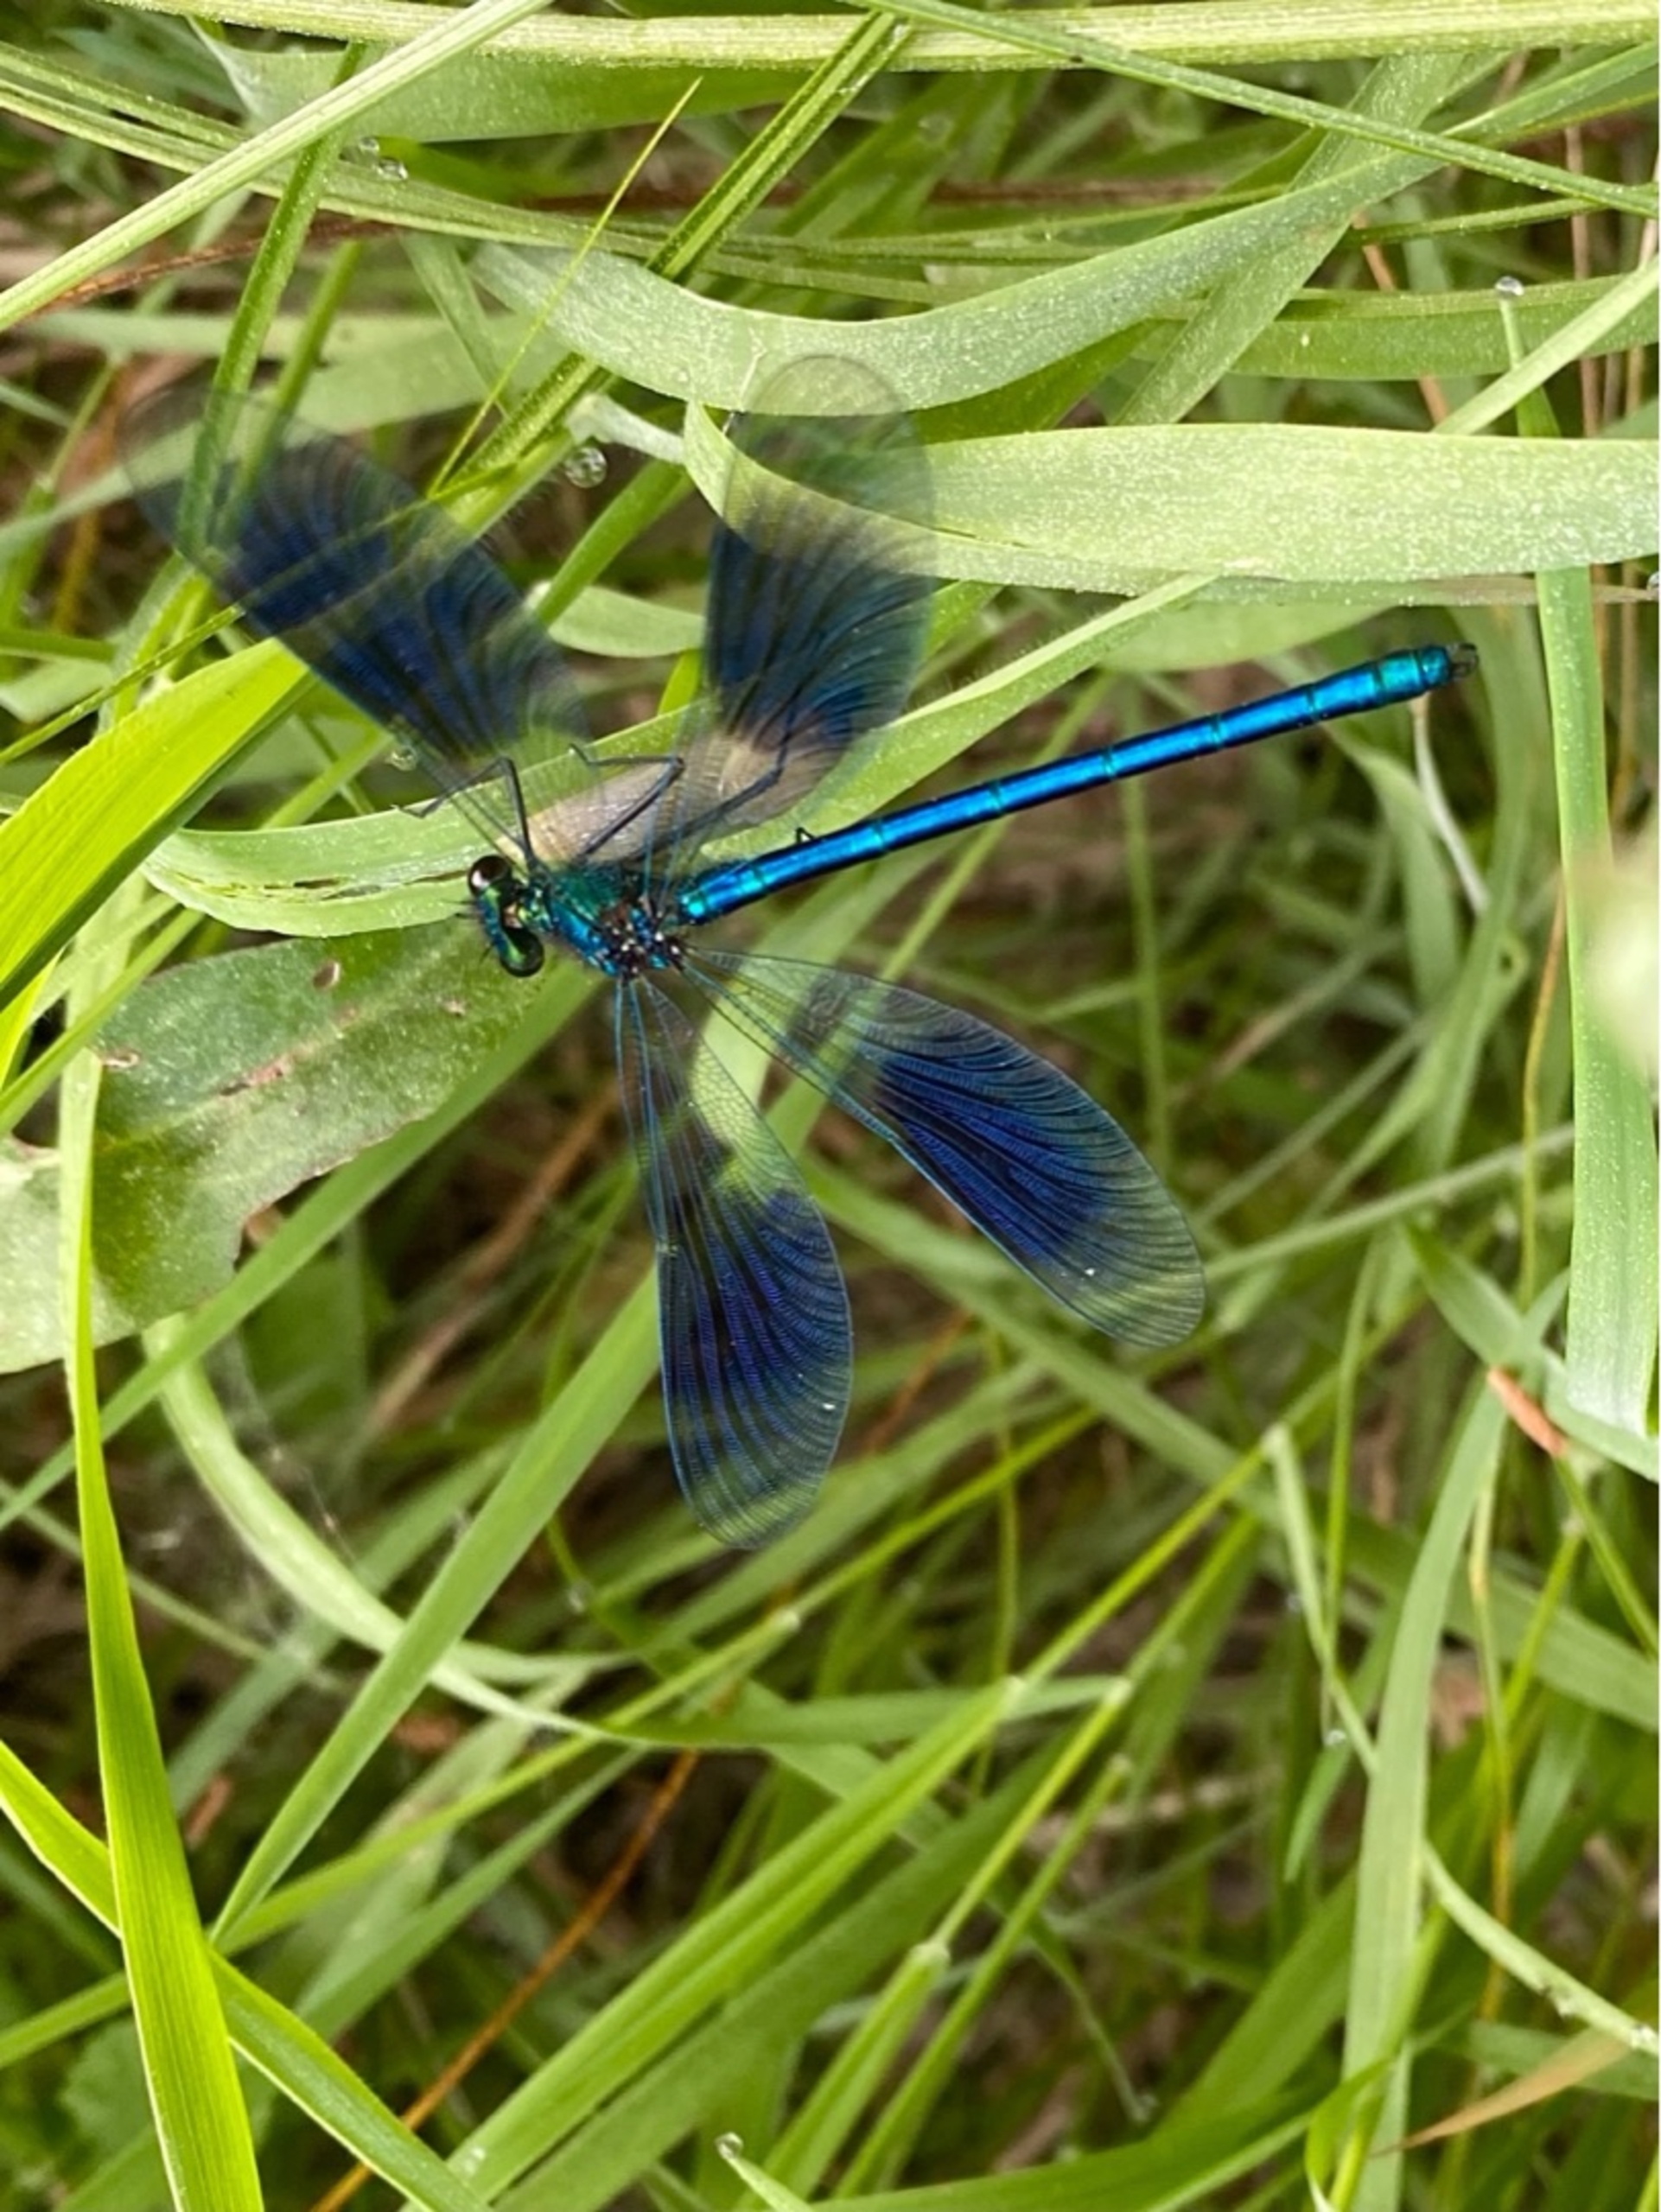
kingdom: Animalia
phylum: Arthropoda
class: Insecta
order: Odonata
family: Calopterygidae
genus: Calopteryx
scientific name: Calopteryx splendens
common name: Blåbåndet pragtvandnymfe
